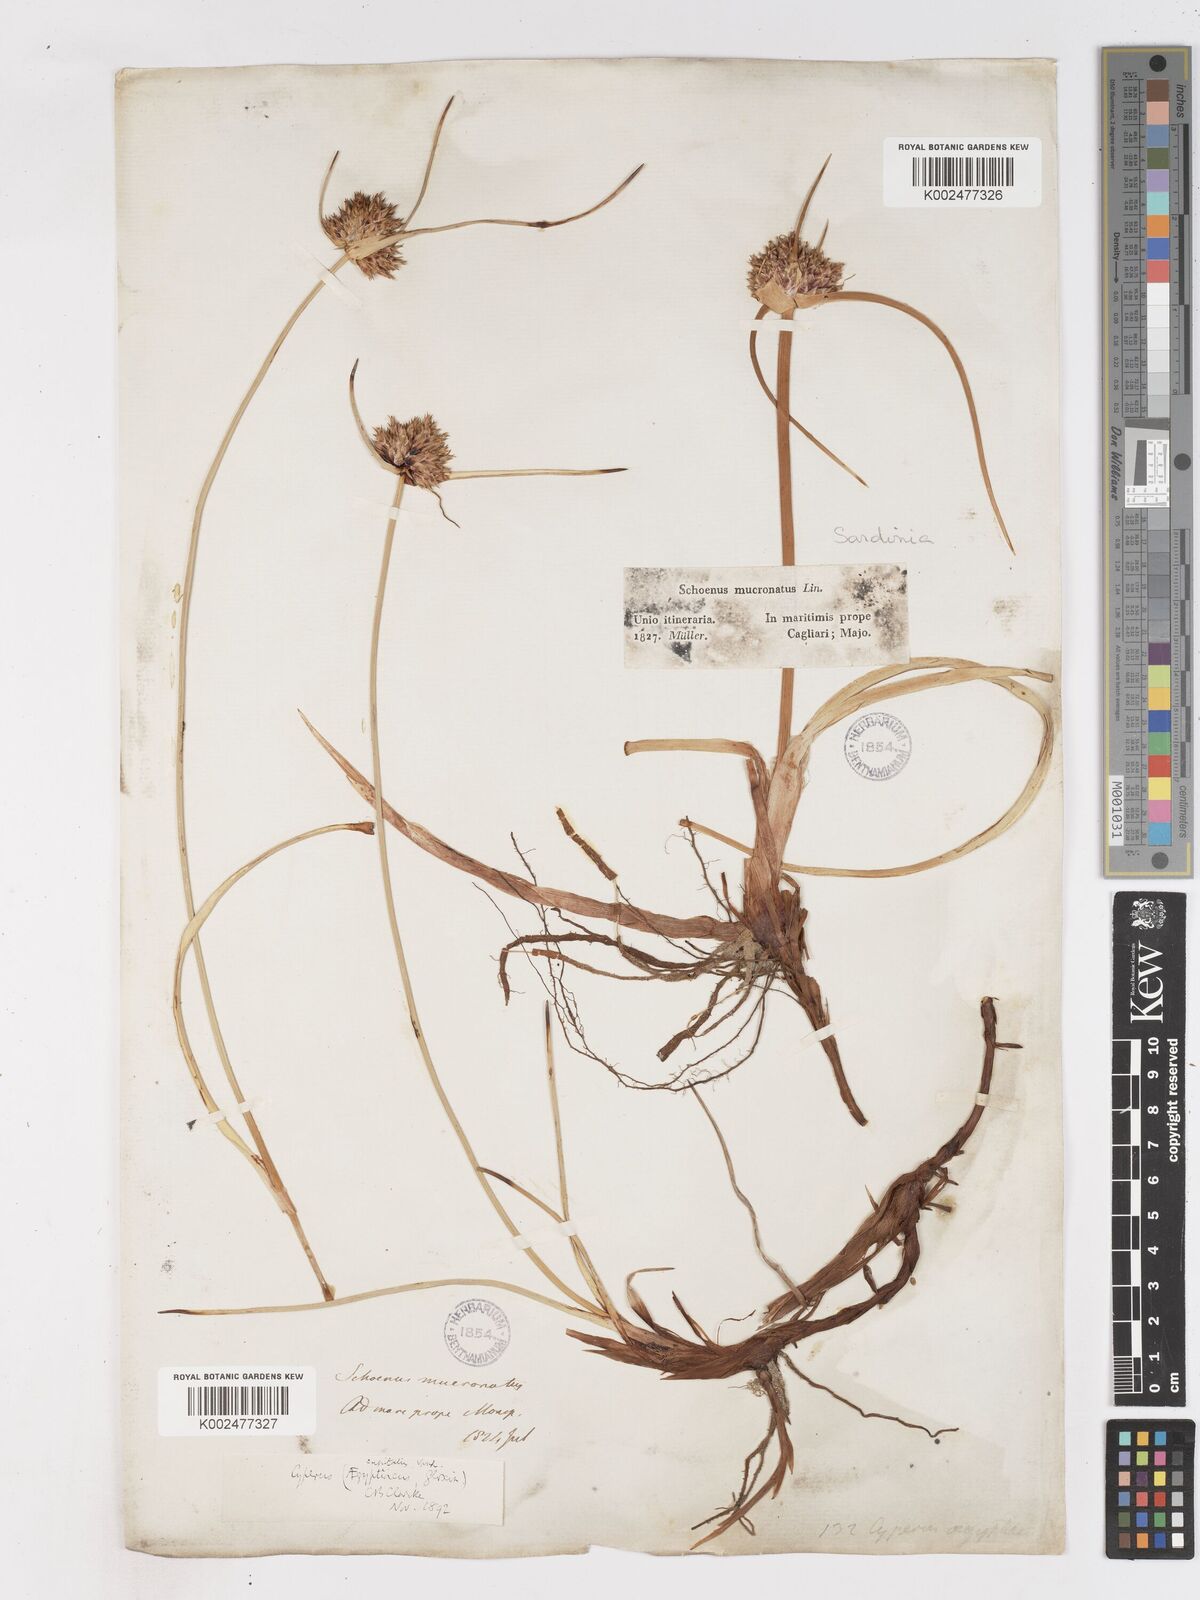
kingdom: Plantae
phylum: Tracheophyta
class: Liliopsida
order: Poales
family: Cyperaceae
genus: Cyperus
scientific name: Cyperus capitatus
